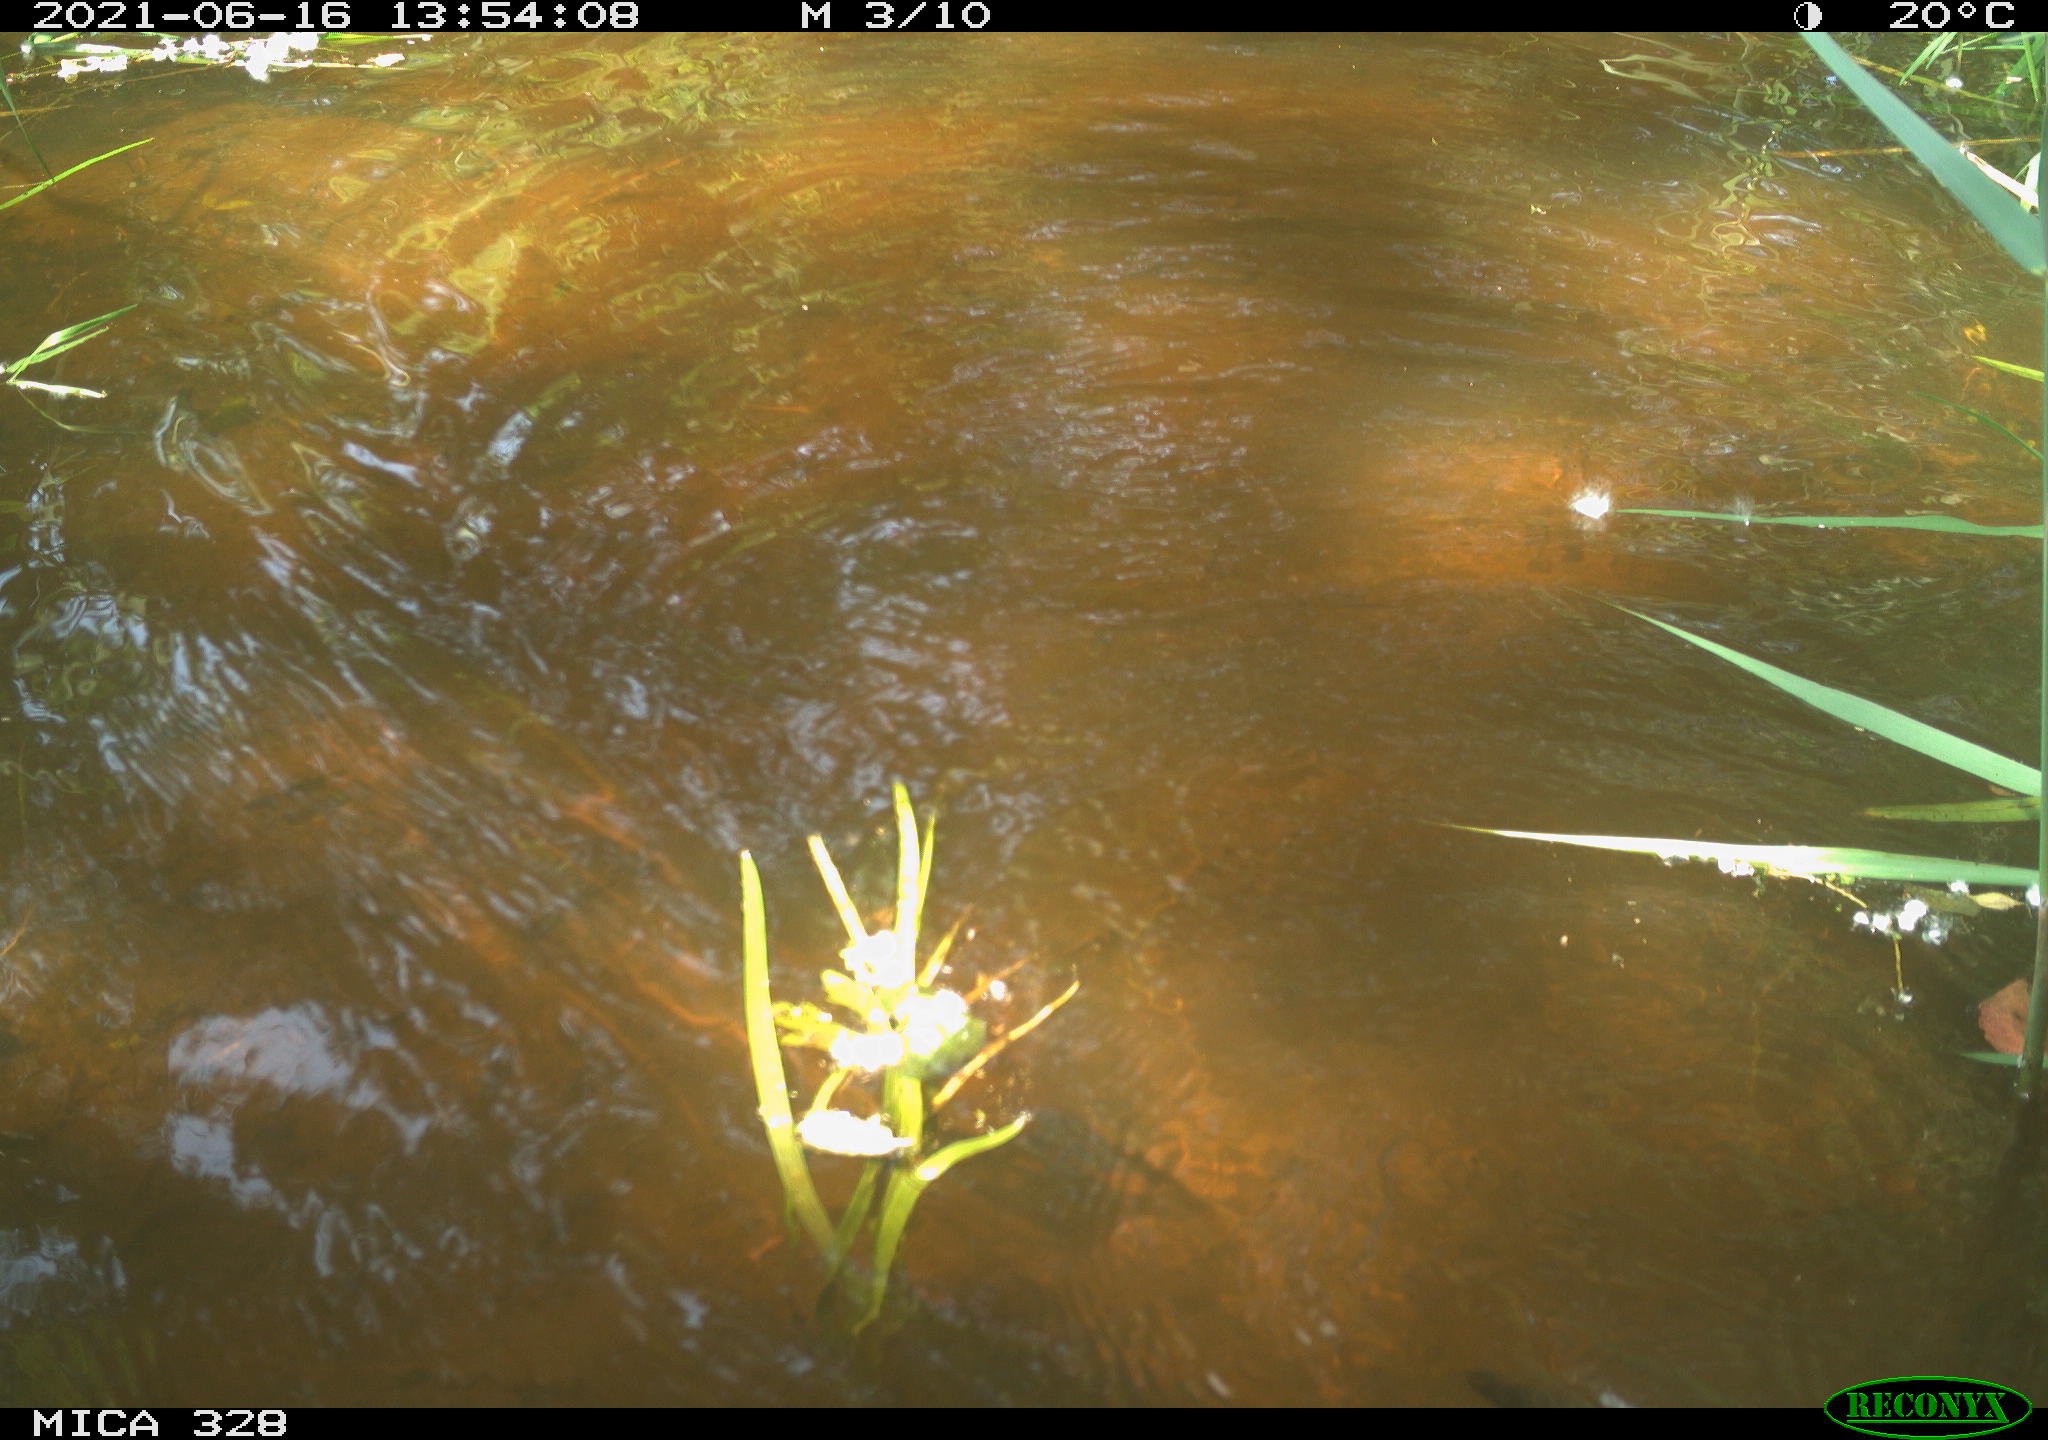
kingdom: Animalia
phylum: Chordata
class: Mammalia
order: Rodentia
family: Cricetidae
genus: Ondatra
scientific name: Ondatra zibethicus
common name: Muskrat
